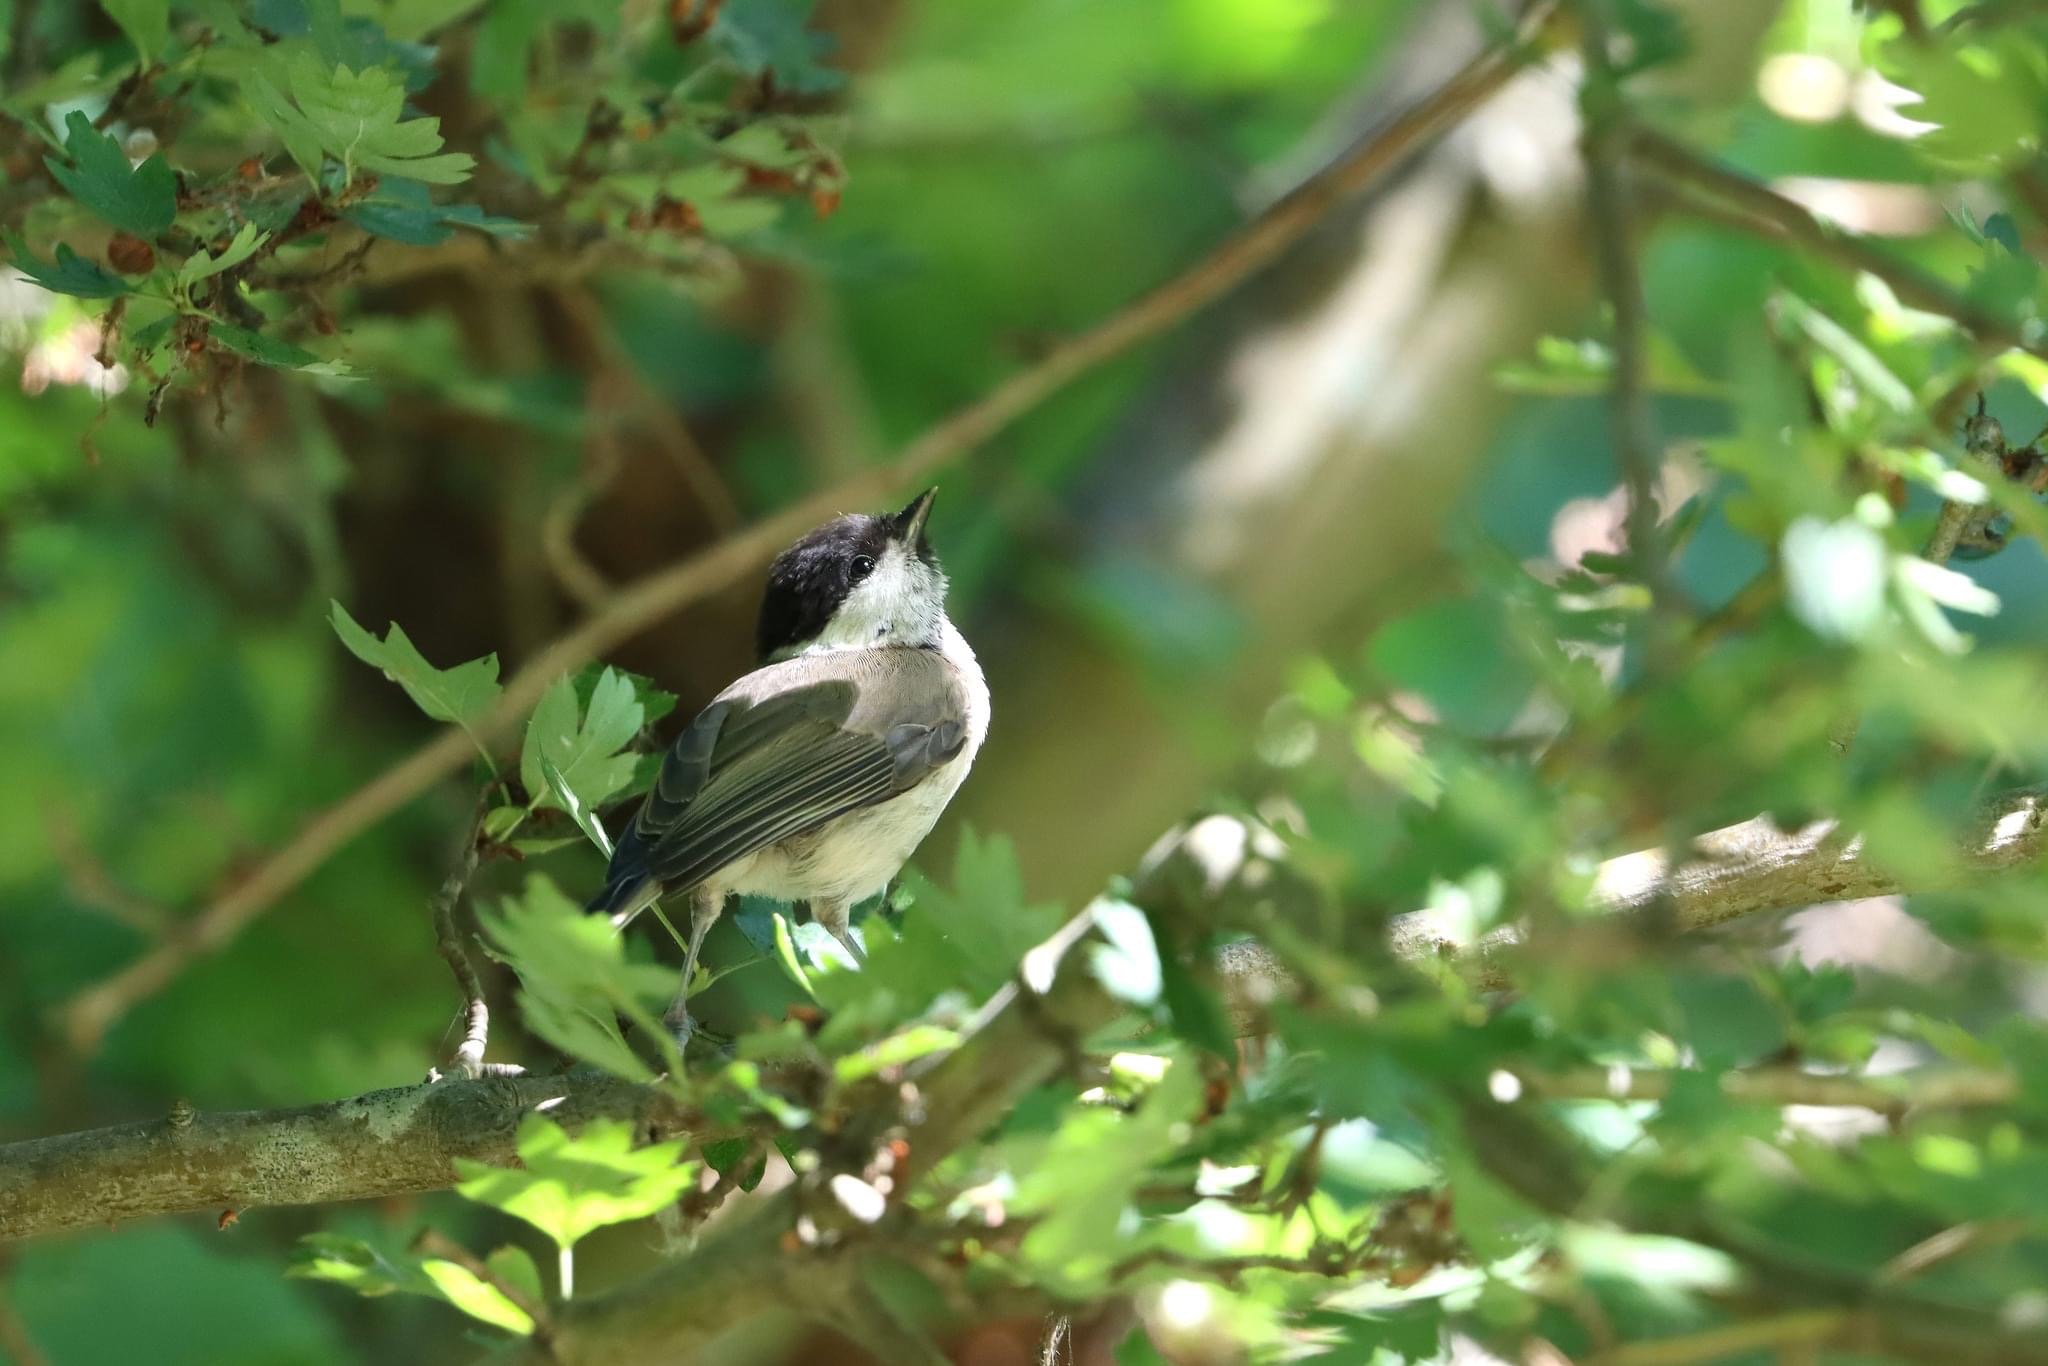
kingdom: Animalia
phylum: Chordata
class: Aves
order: Passeriformes
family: Paridae
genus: Poecile
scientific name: Poecile palustris
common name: Sumpmejse
